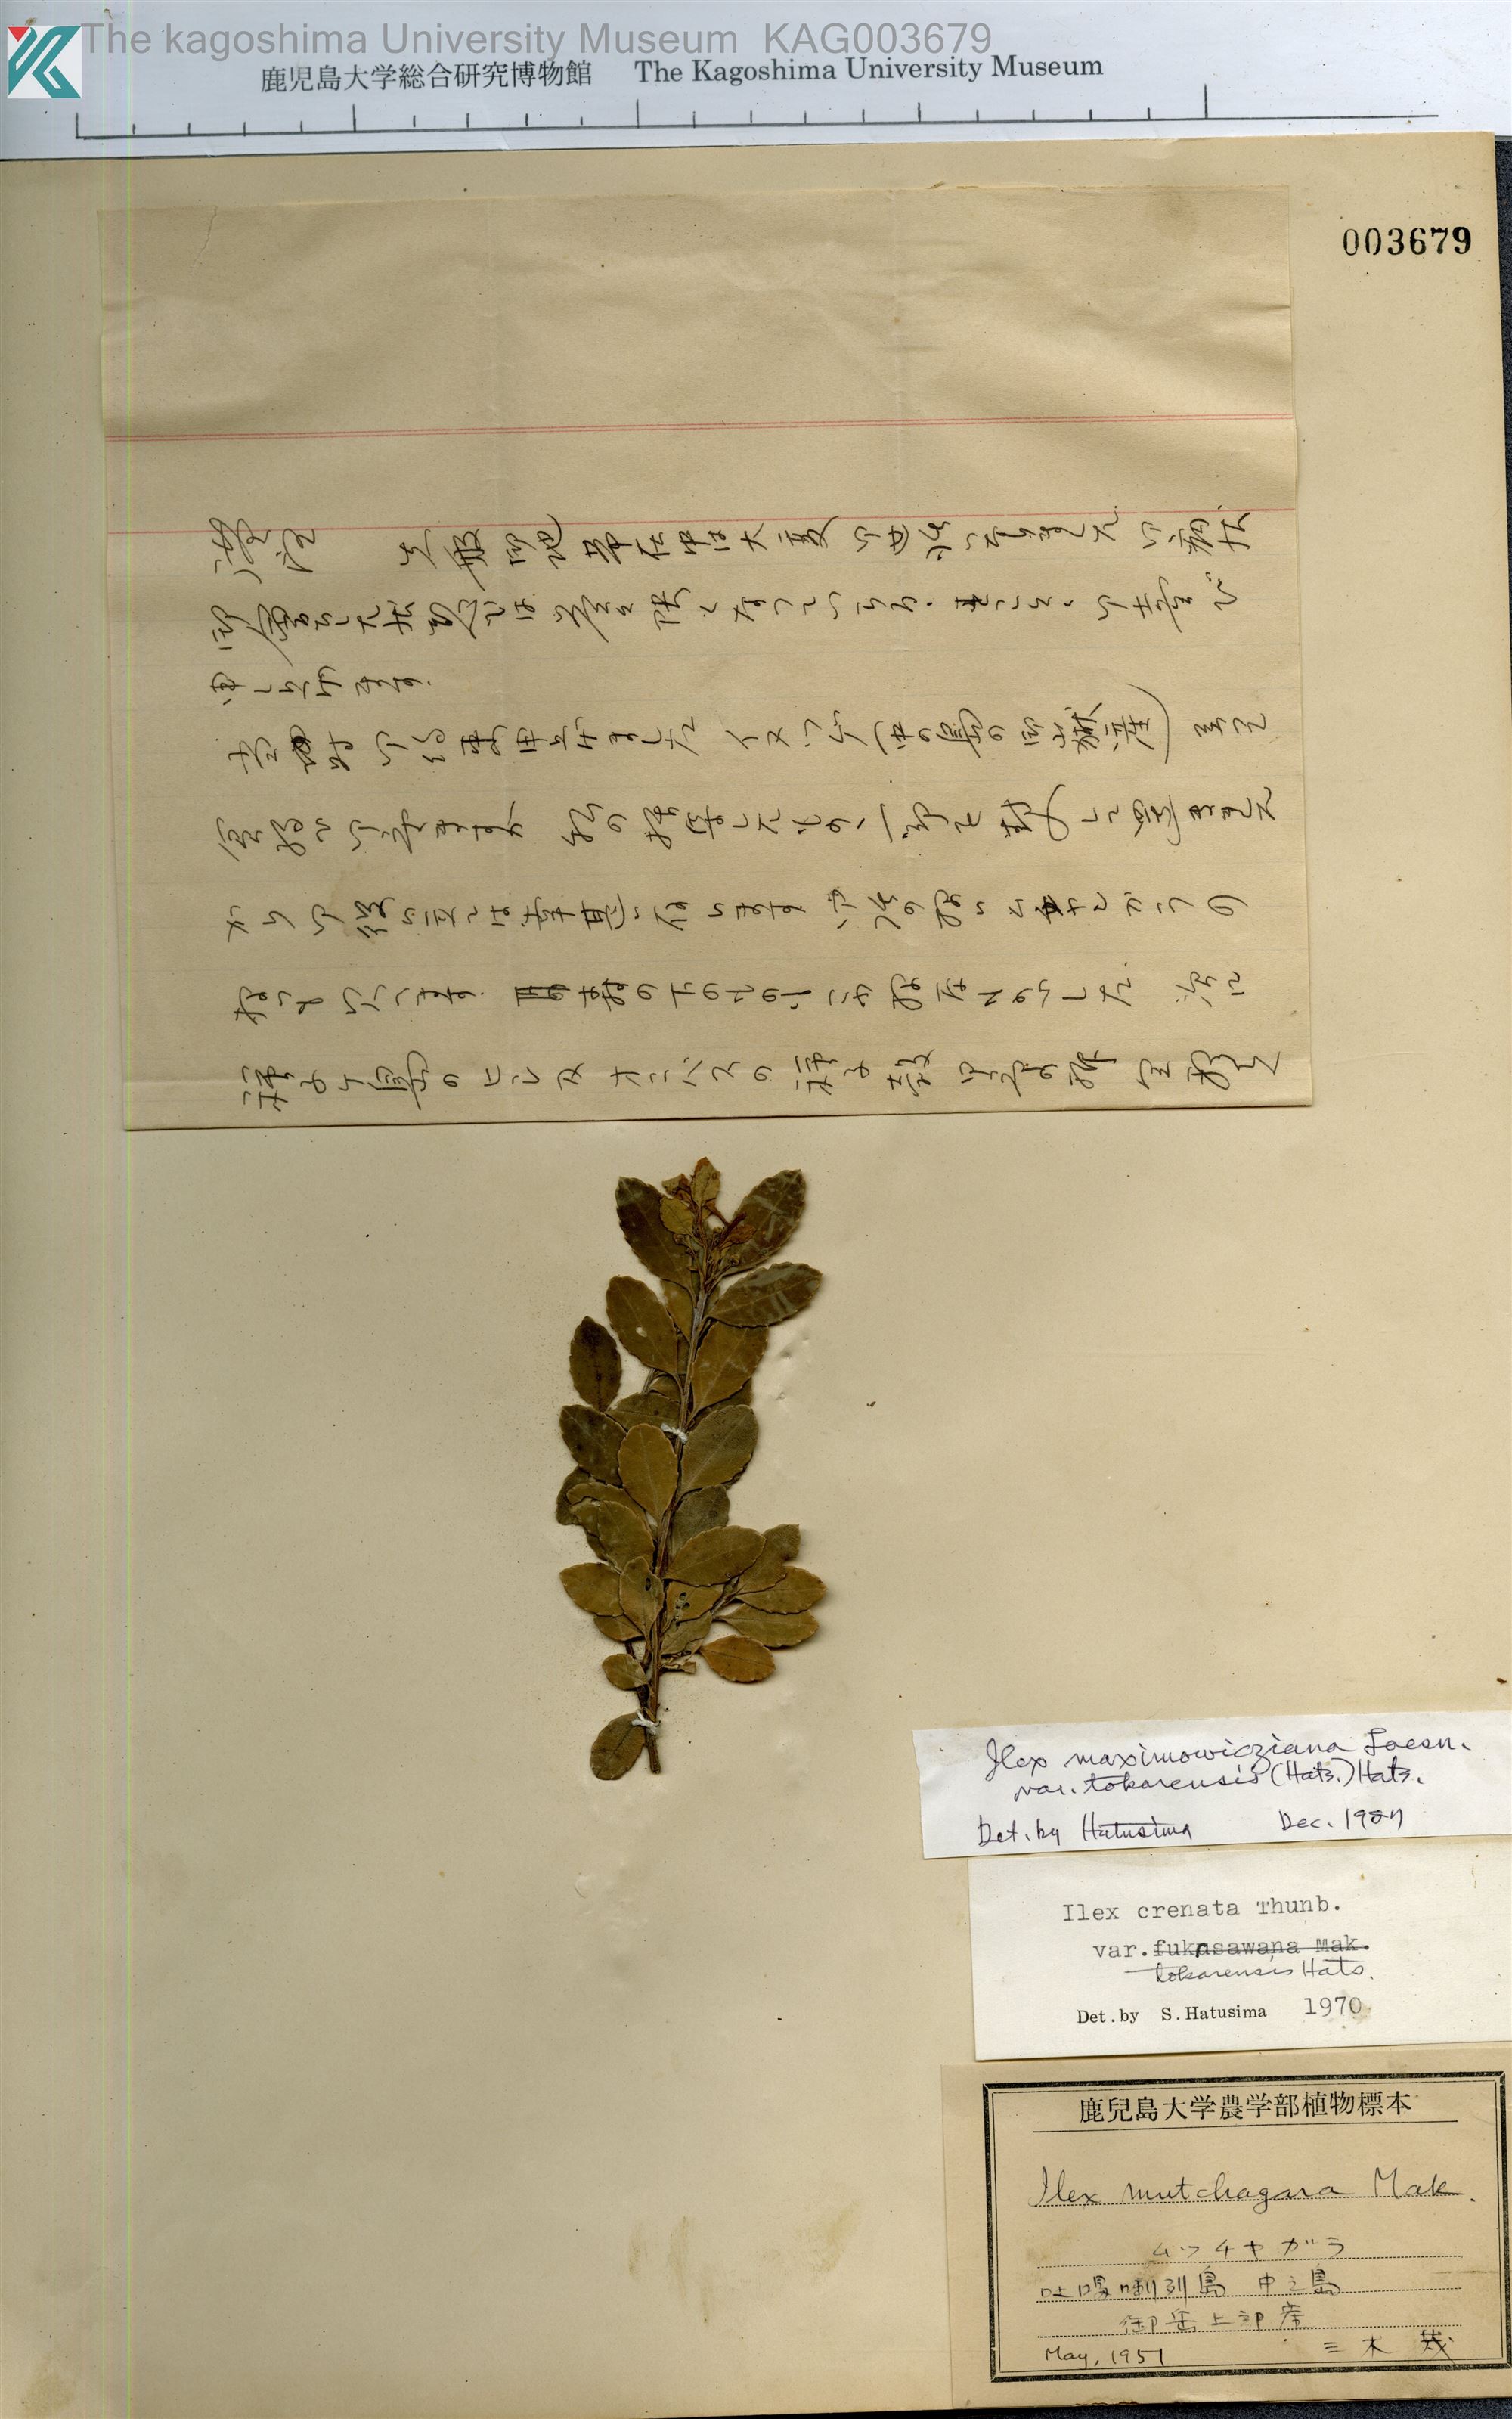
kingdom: Plantae
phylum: Tracheophyta
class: Magnoliopsida
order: Aquifoliales
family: Aquifoliaceae
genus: Ilex
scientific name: Ilex crenata
